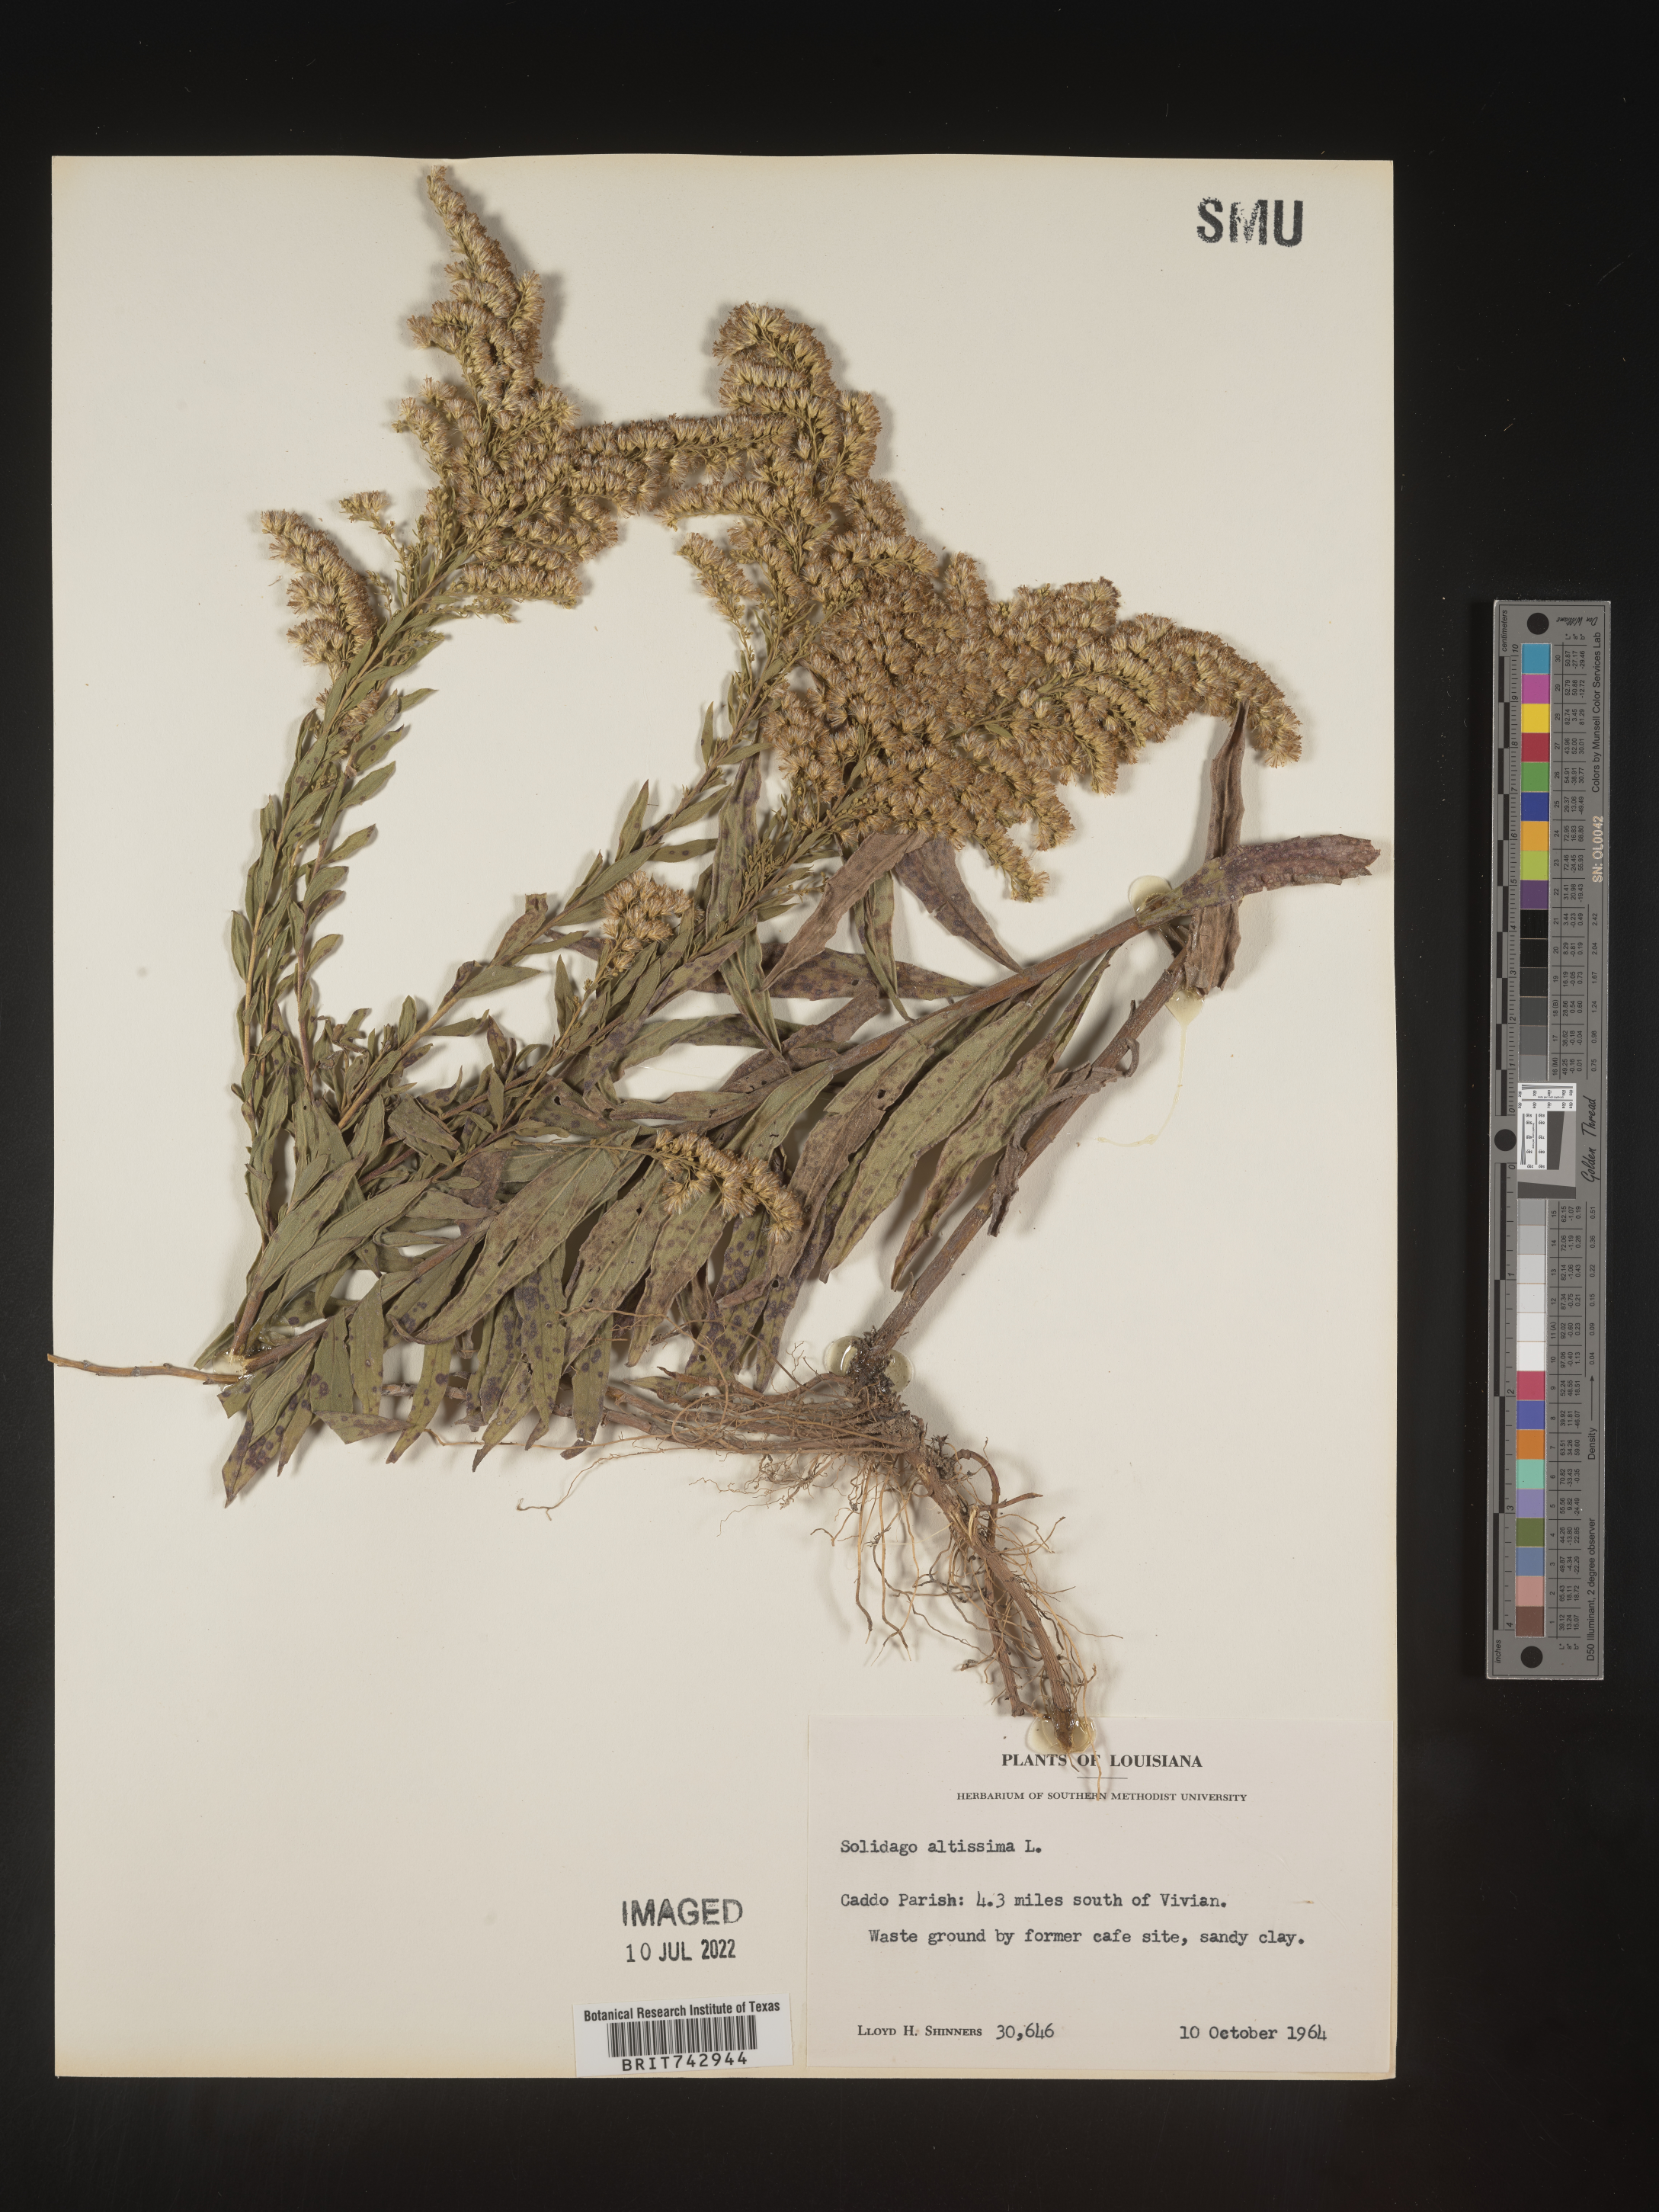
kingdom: Plantae
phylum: Tracheophyta
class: Magnoliopsida
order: Asterales
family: Asteraceae
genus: Solidago
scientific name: Solidago altissima
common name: Late goldenrod
